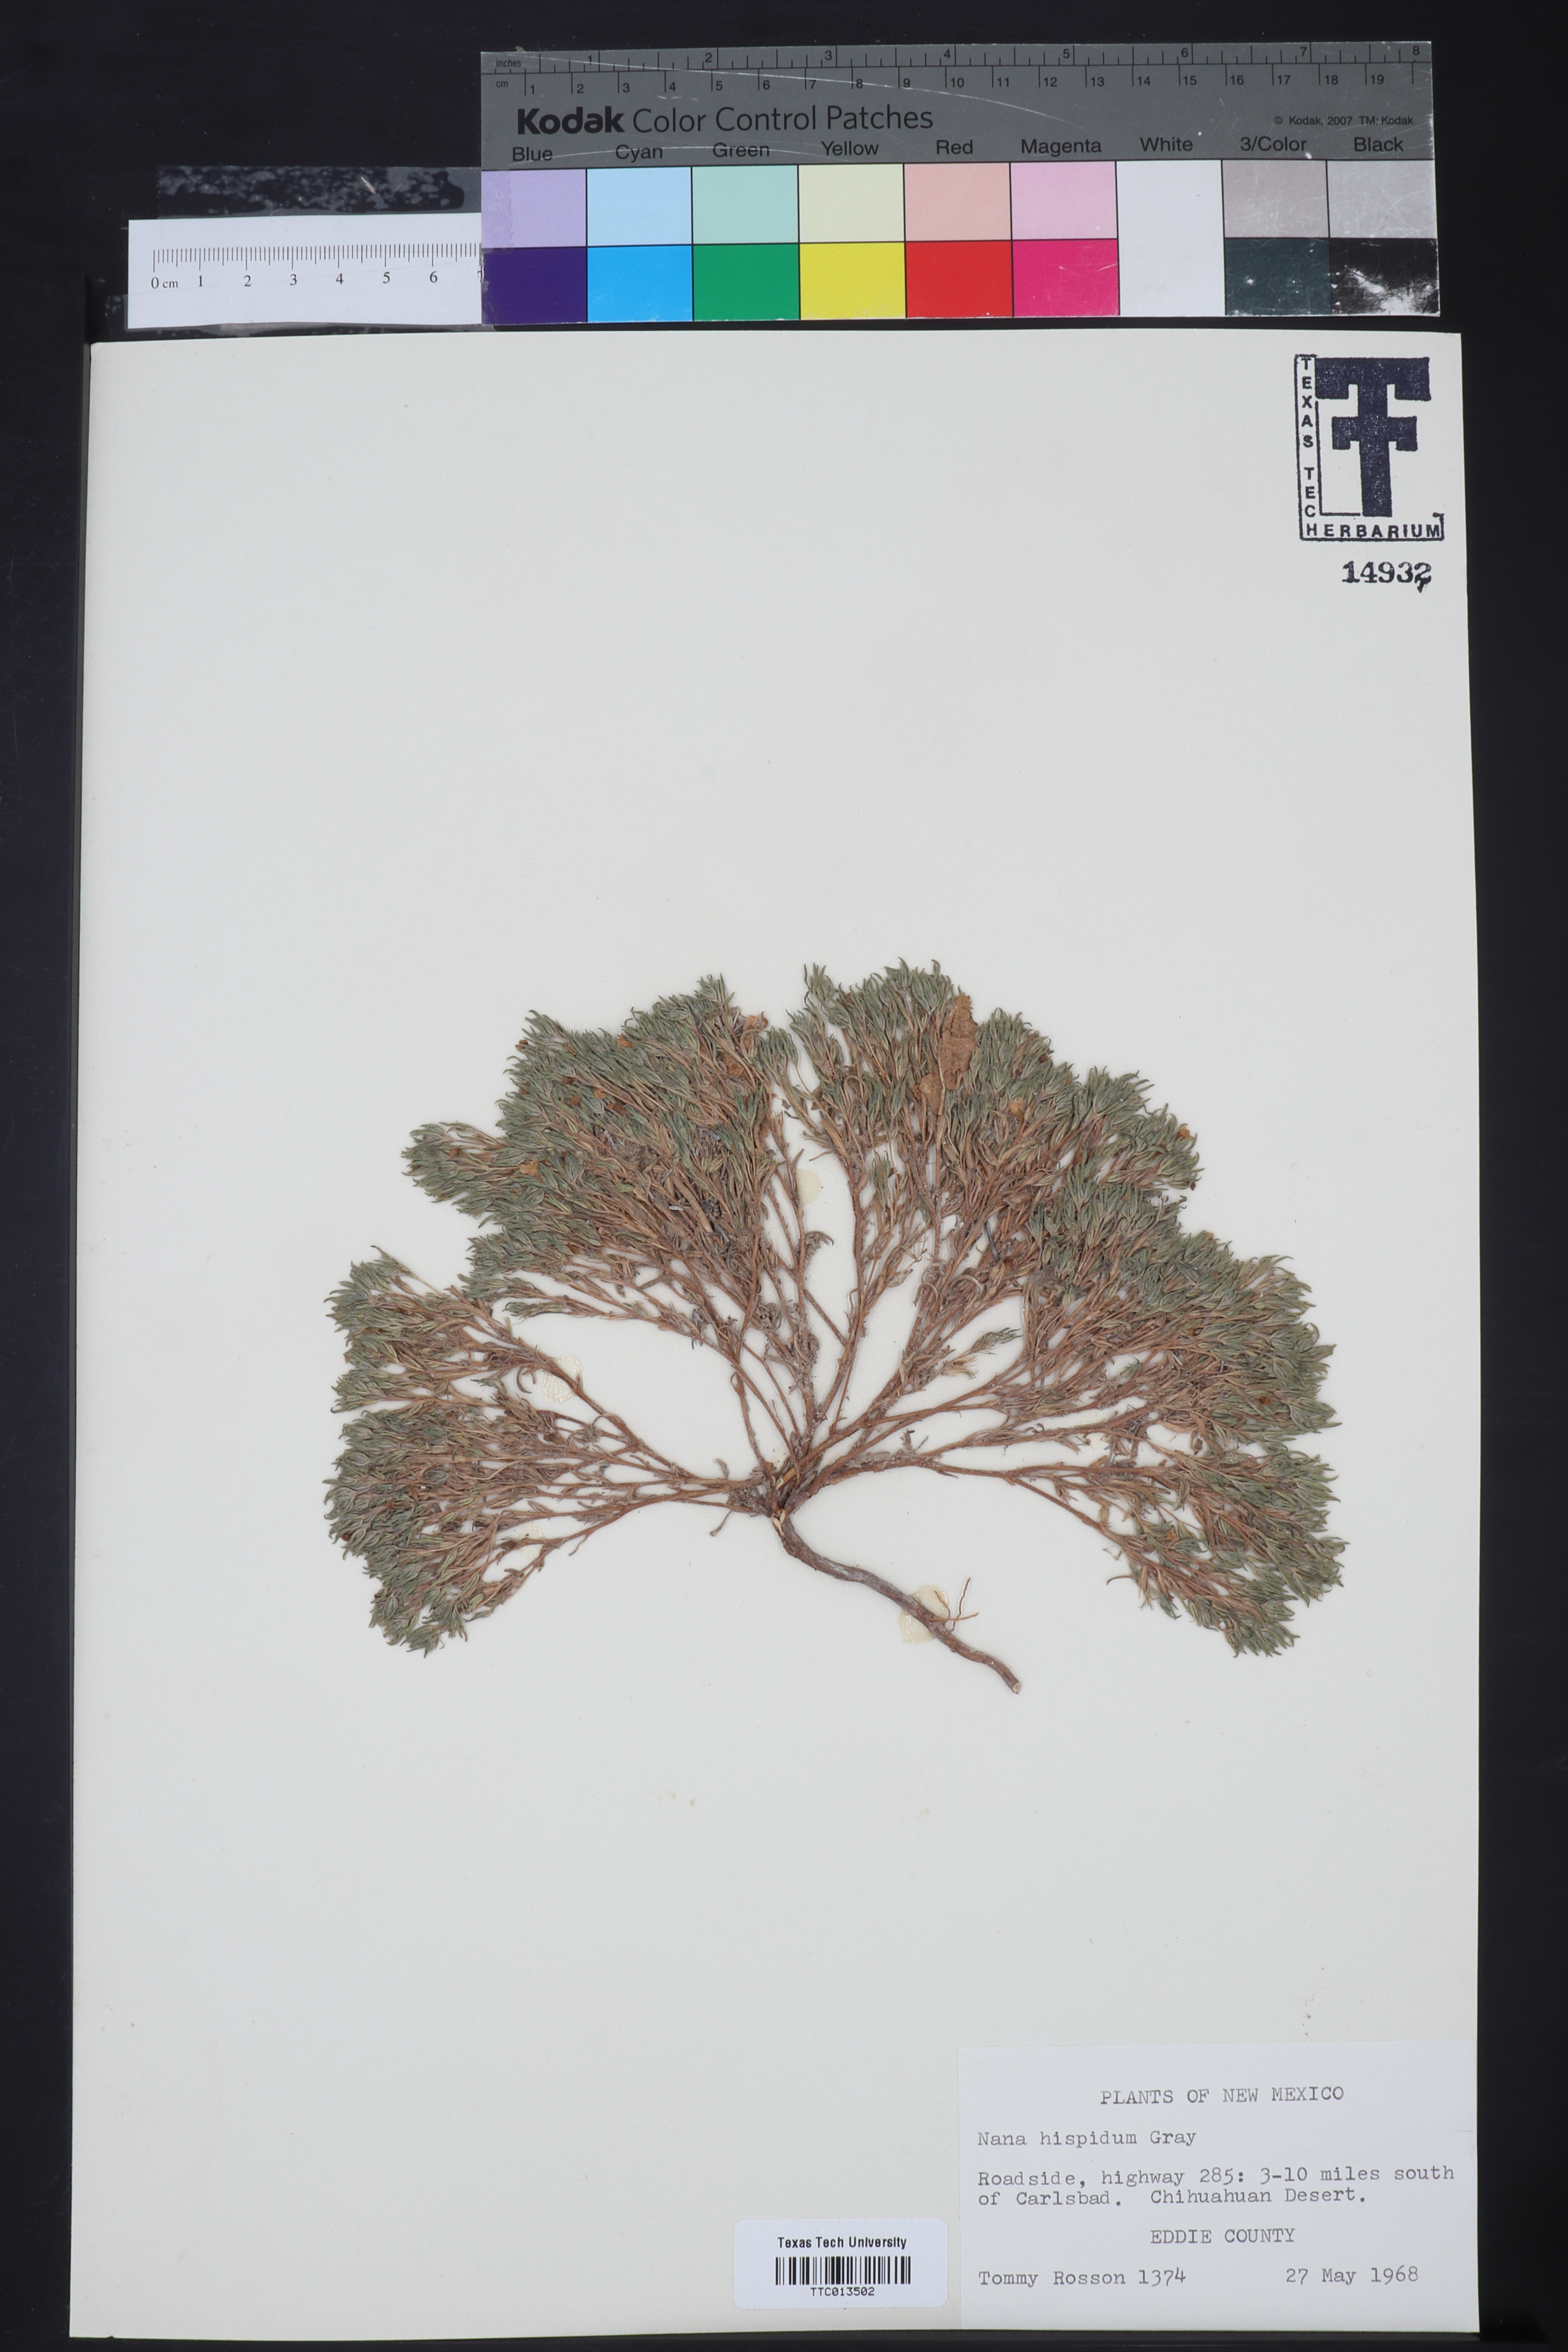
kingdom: Plantae
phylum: Tracheophyta
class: Magnoliopsida
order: Boraginales
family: Namaceae
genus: Nama
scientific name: Nama hispida
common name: Bristly nama
